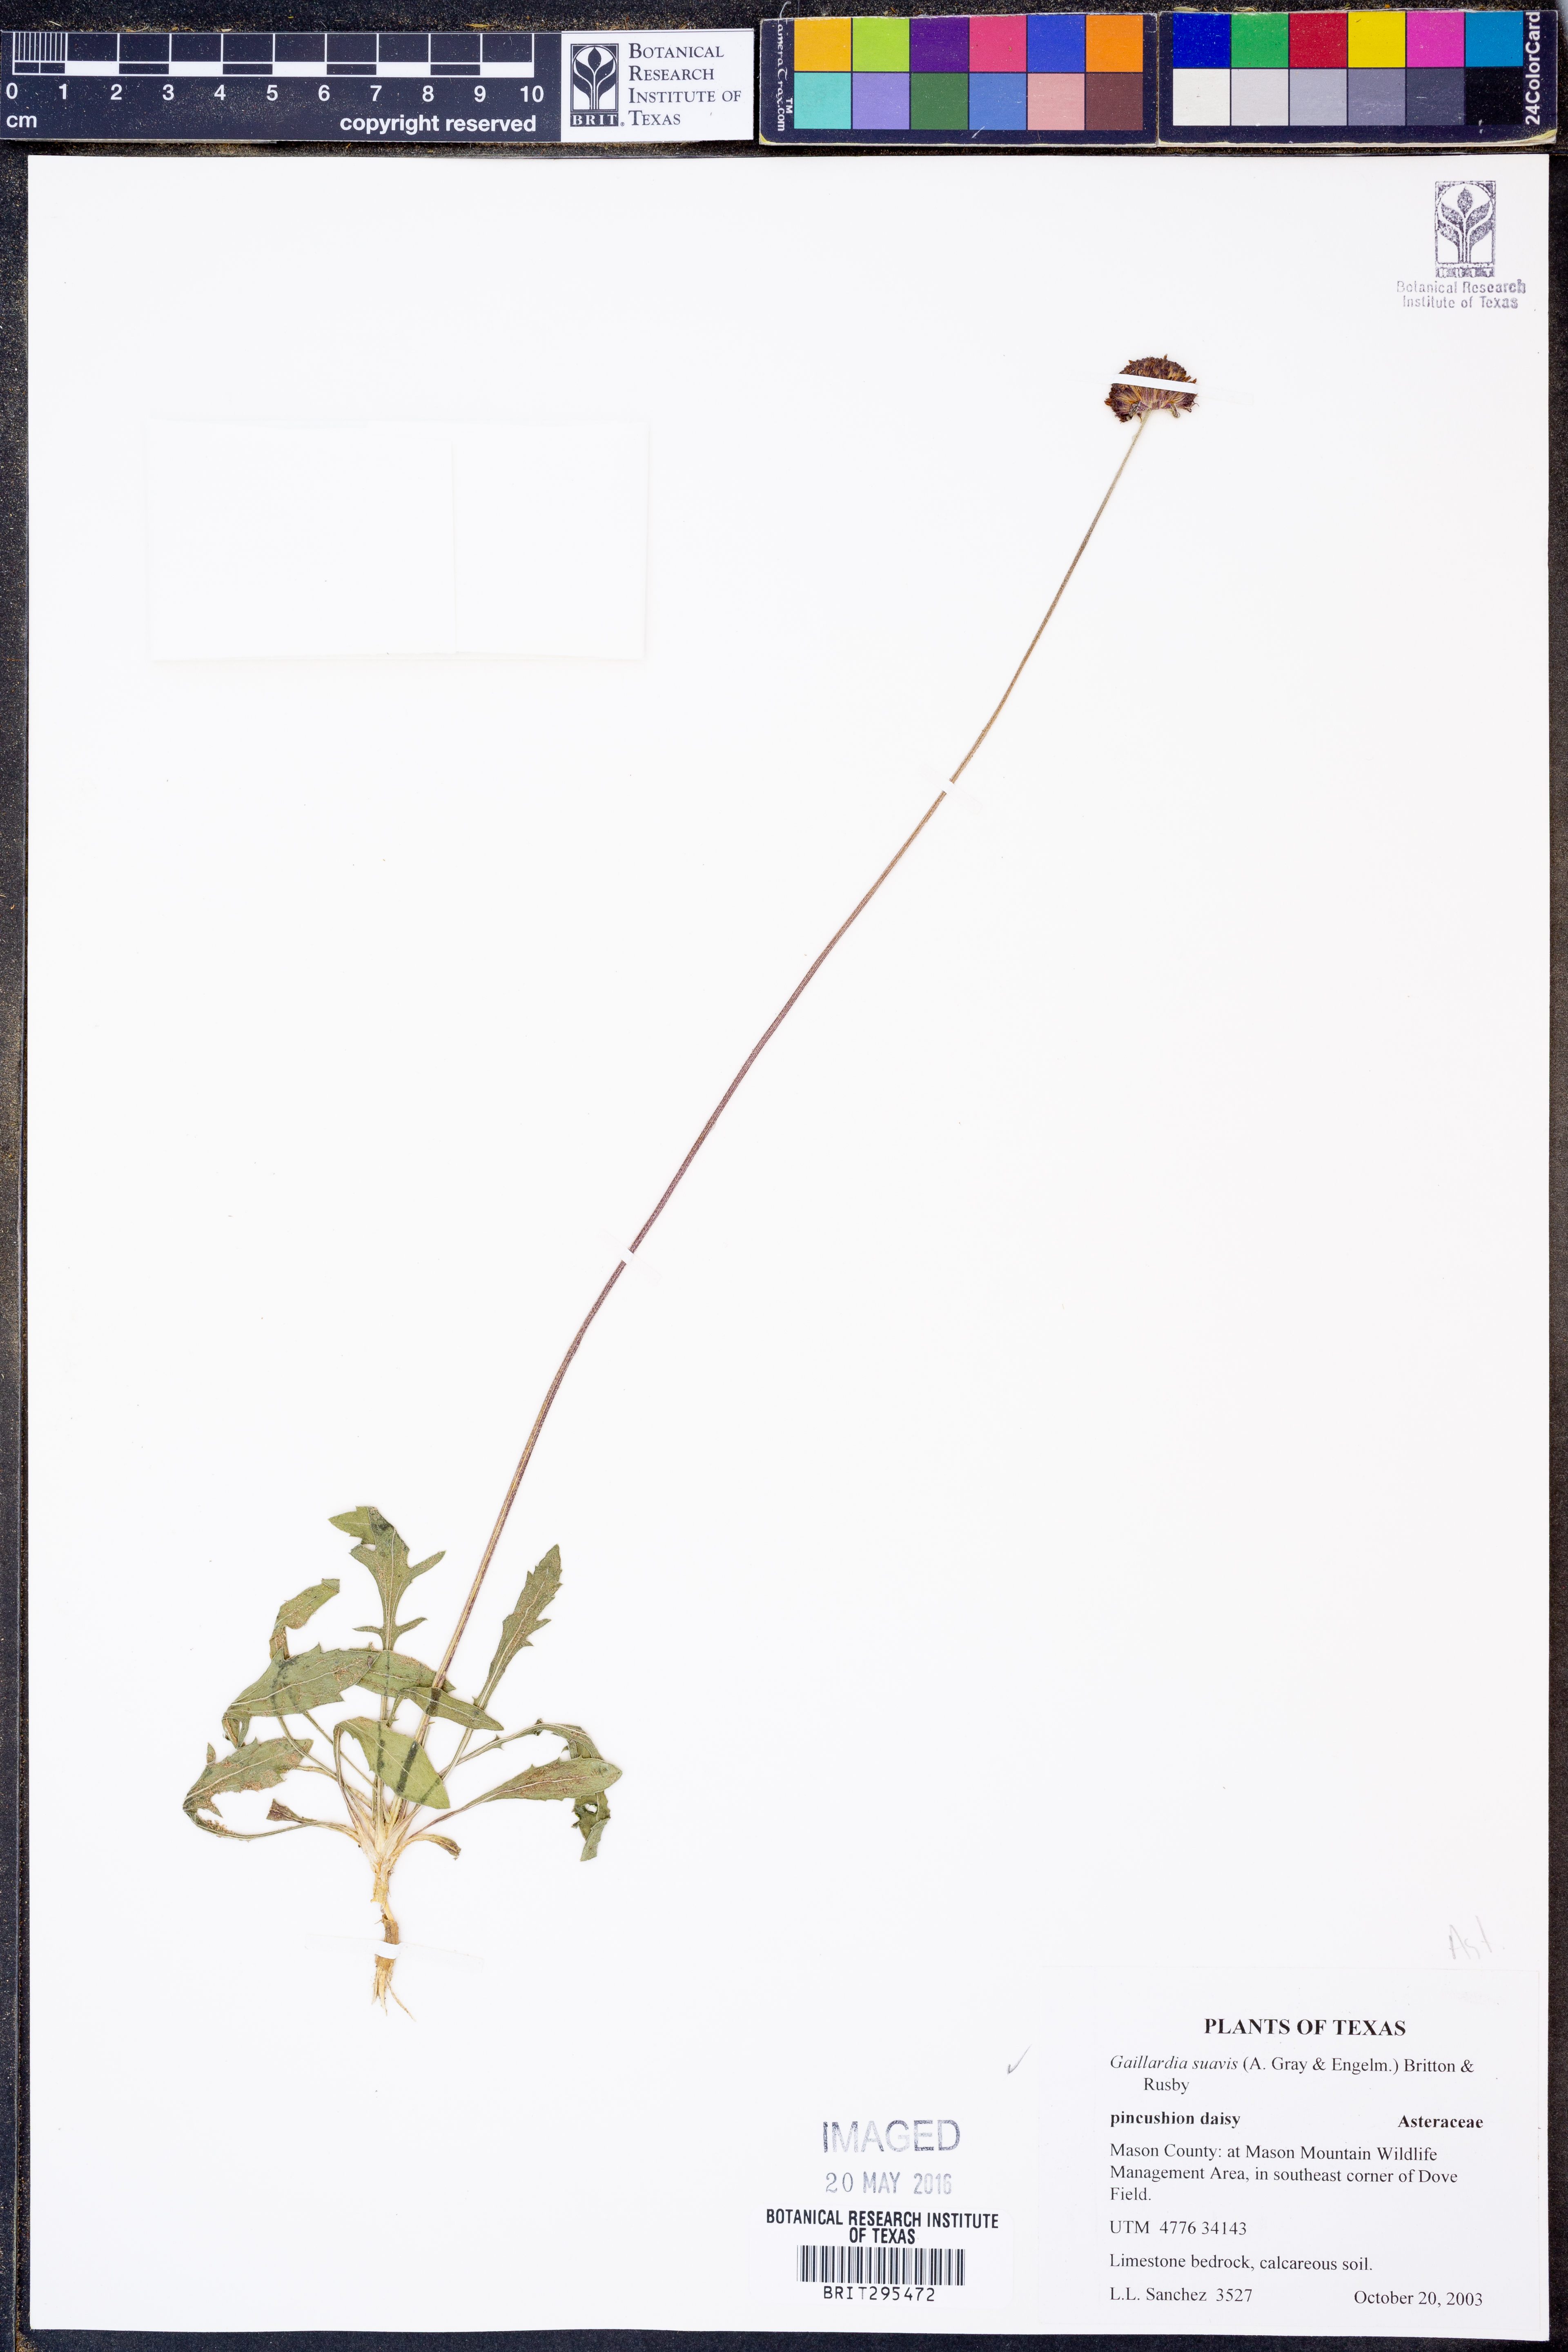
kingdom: Plantae
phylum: Tracheophyta
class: Magnoliopsida
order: Asterales
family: Asteraceae
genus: Gaillardia
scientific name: Gaillardia suavis
